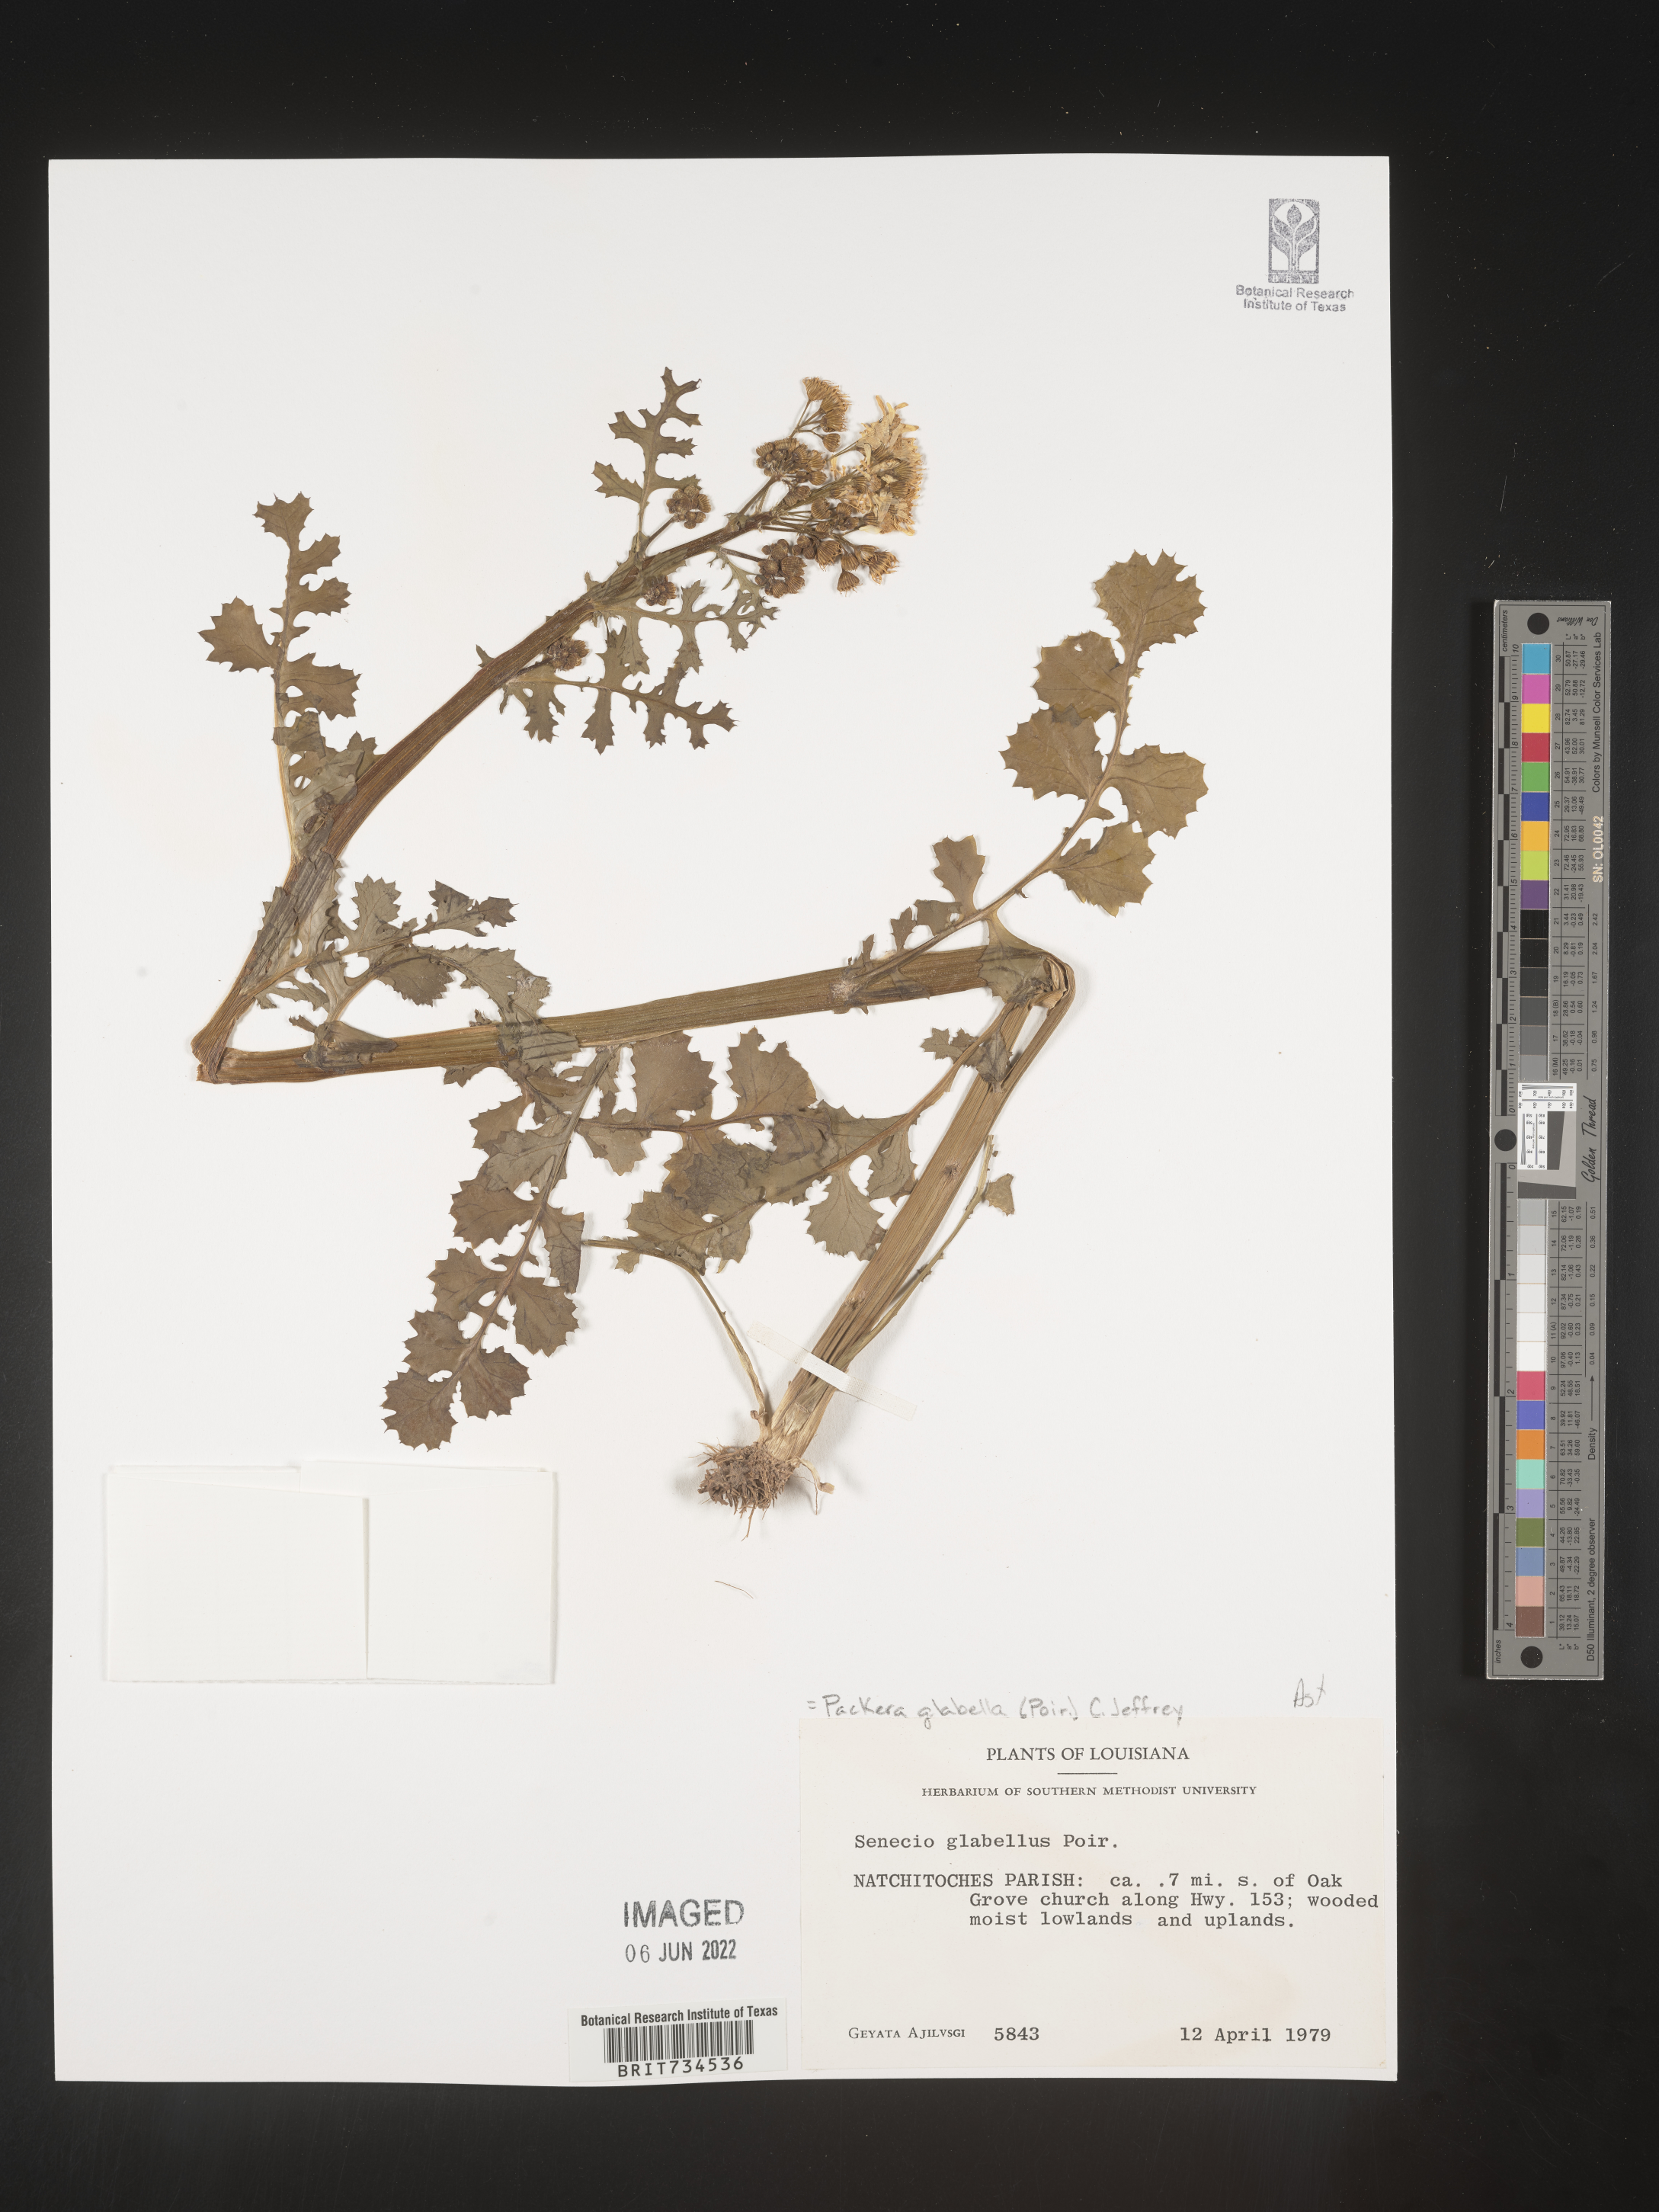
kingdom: Plantae
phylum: Tracheophyta
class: Magnoliopsida
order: Asterales
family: Asteraceae
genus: Packera
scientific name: Packera glabella
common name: Butterweed
